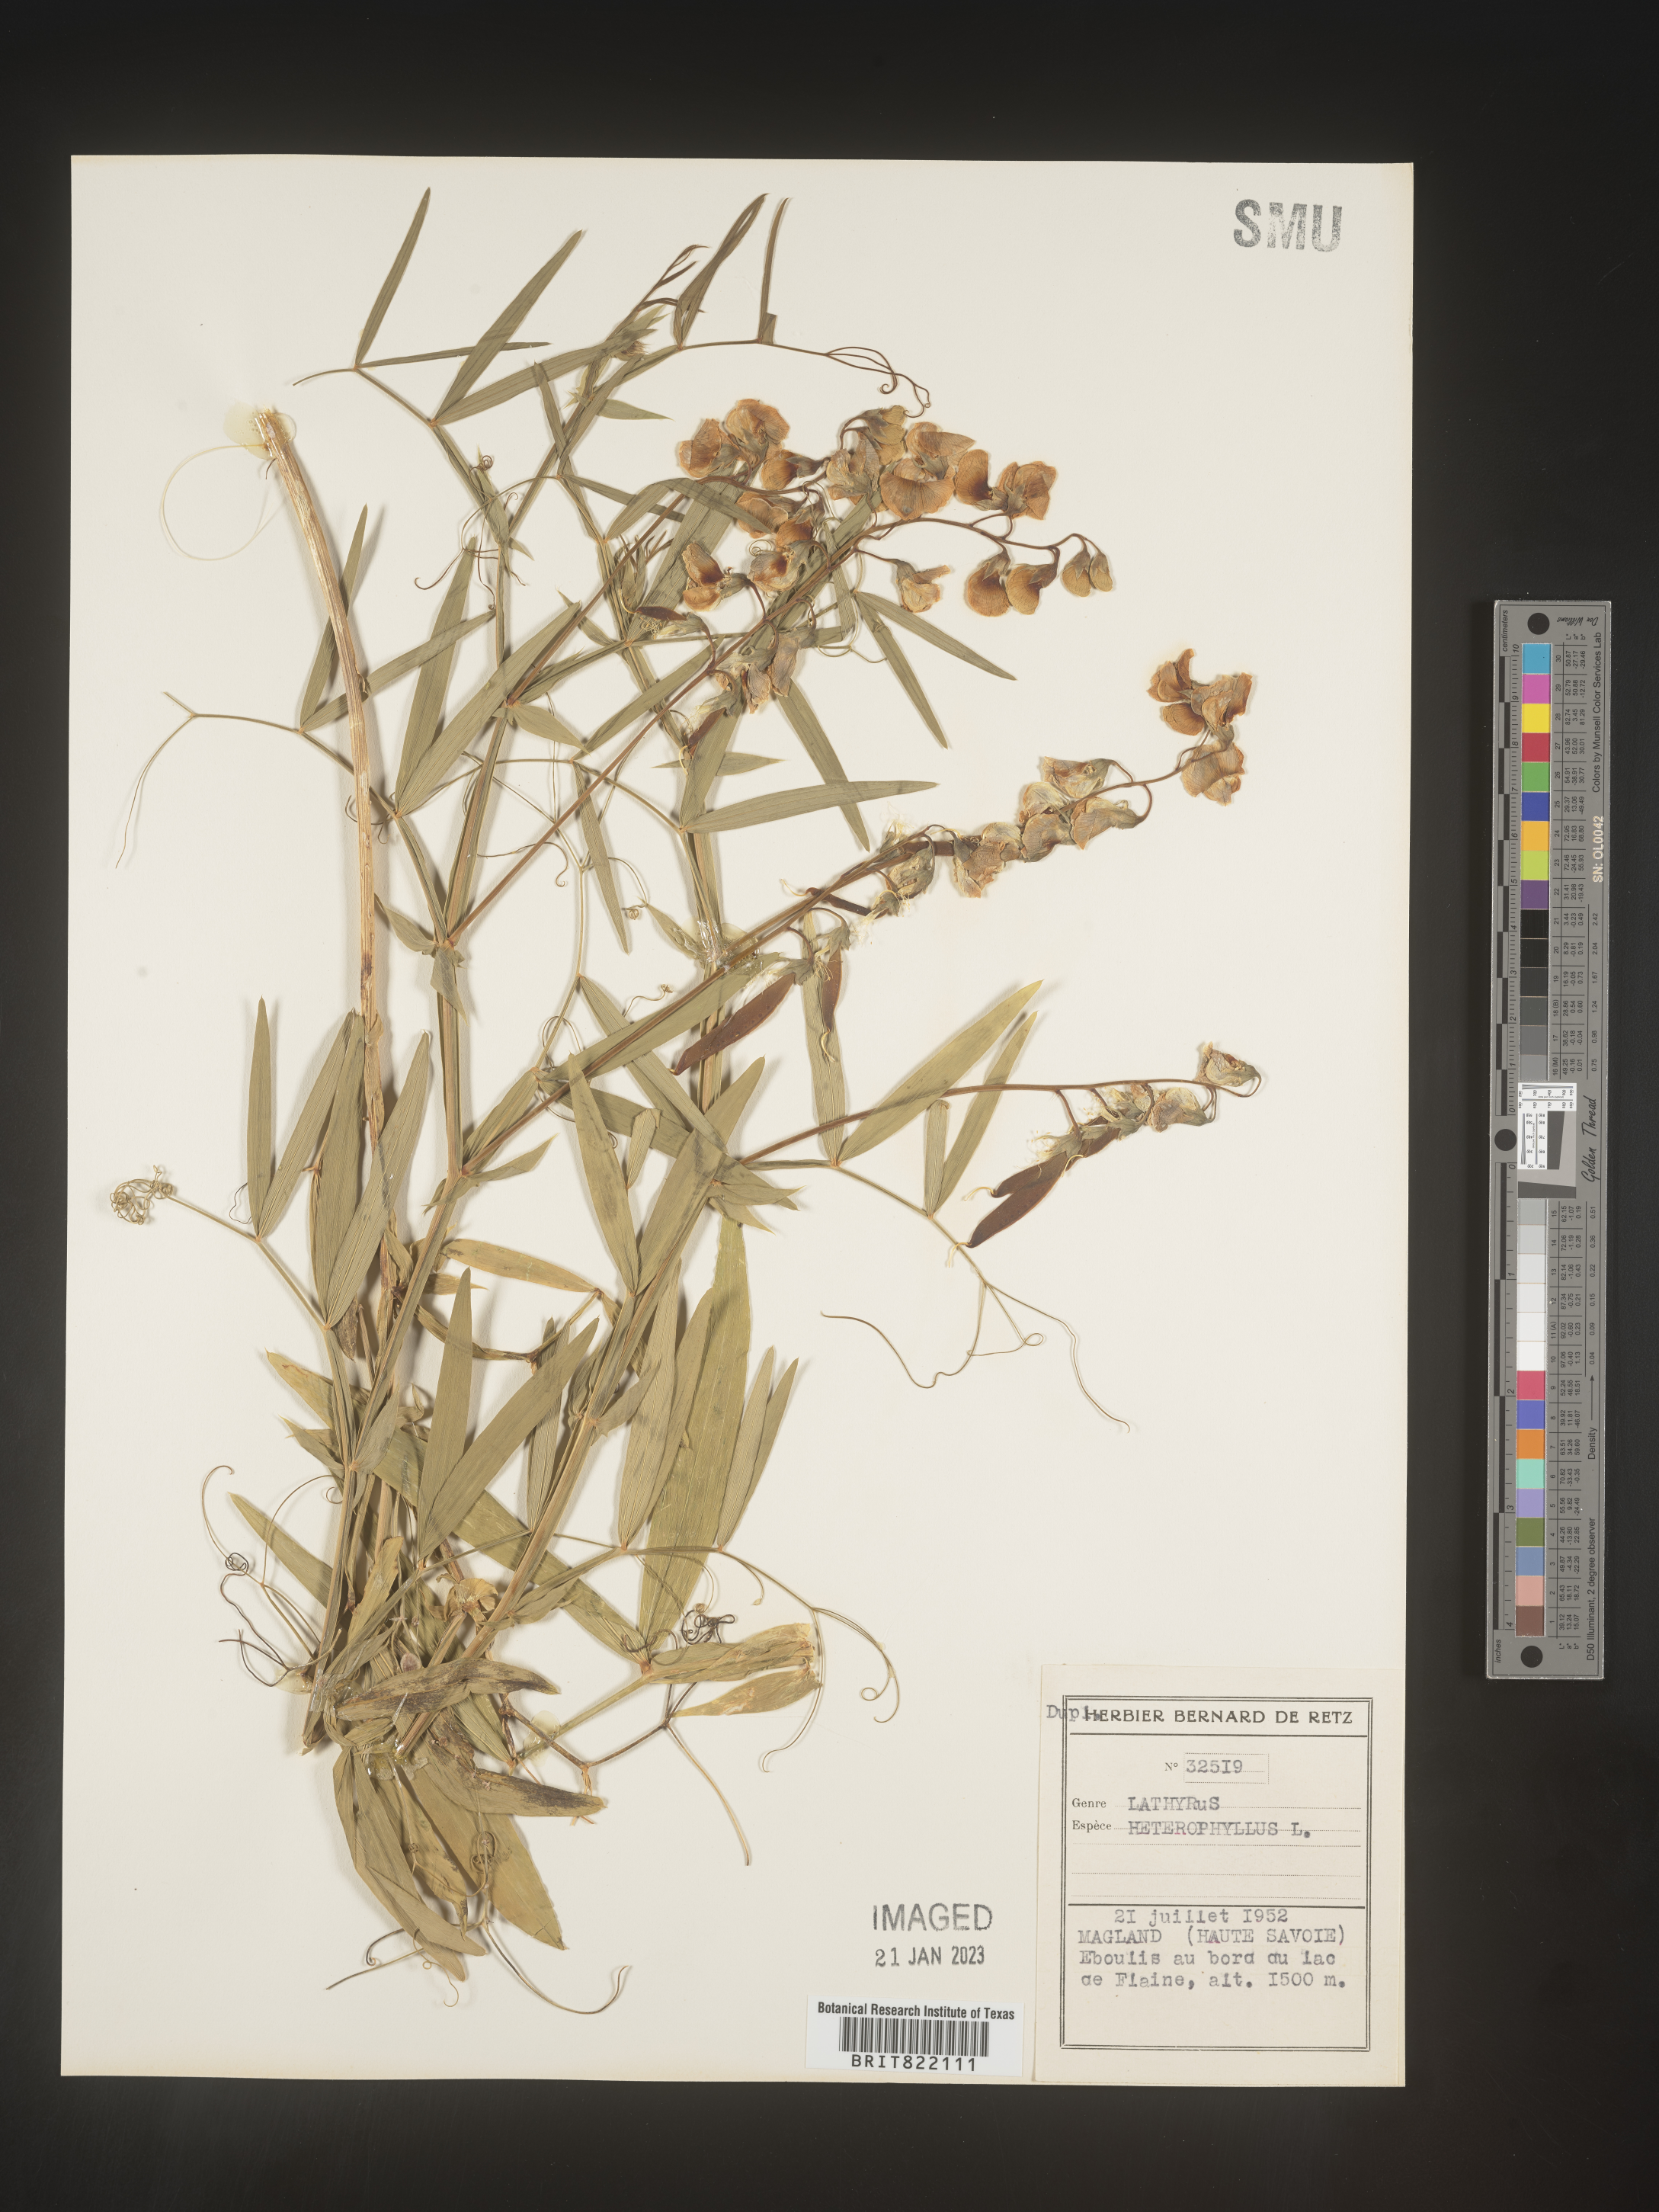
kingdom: Plantae
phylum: Tracheophyta
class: Magnoliopsida
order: Fabales
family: Fabaceae
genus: Lathyrus
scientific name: Lathyrus
